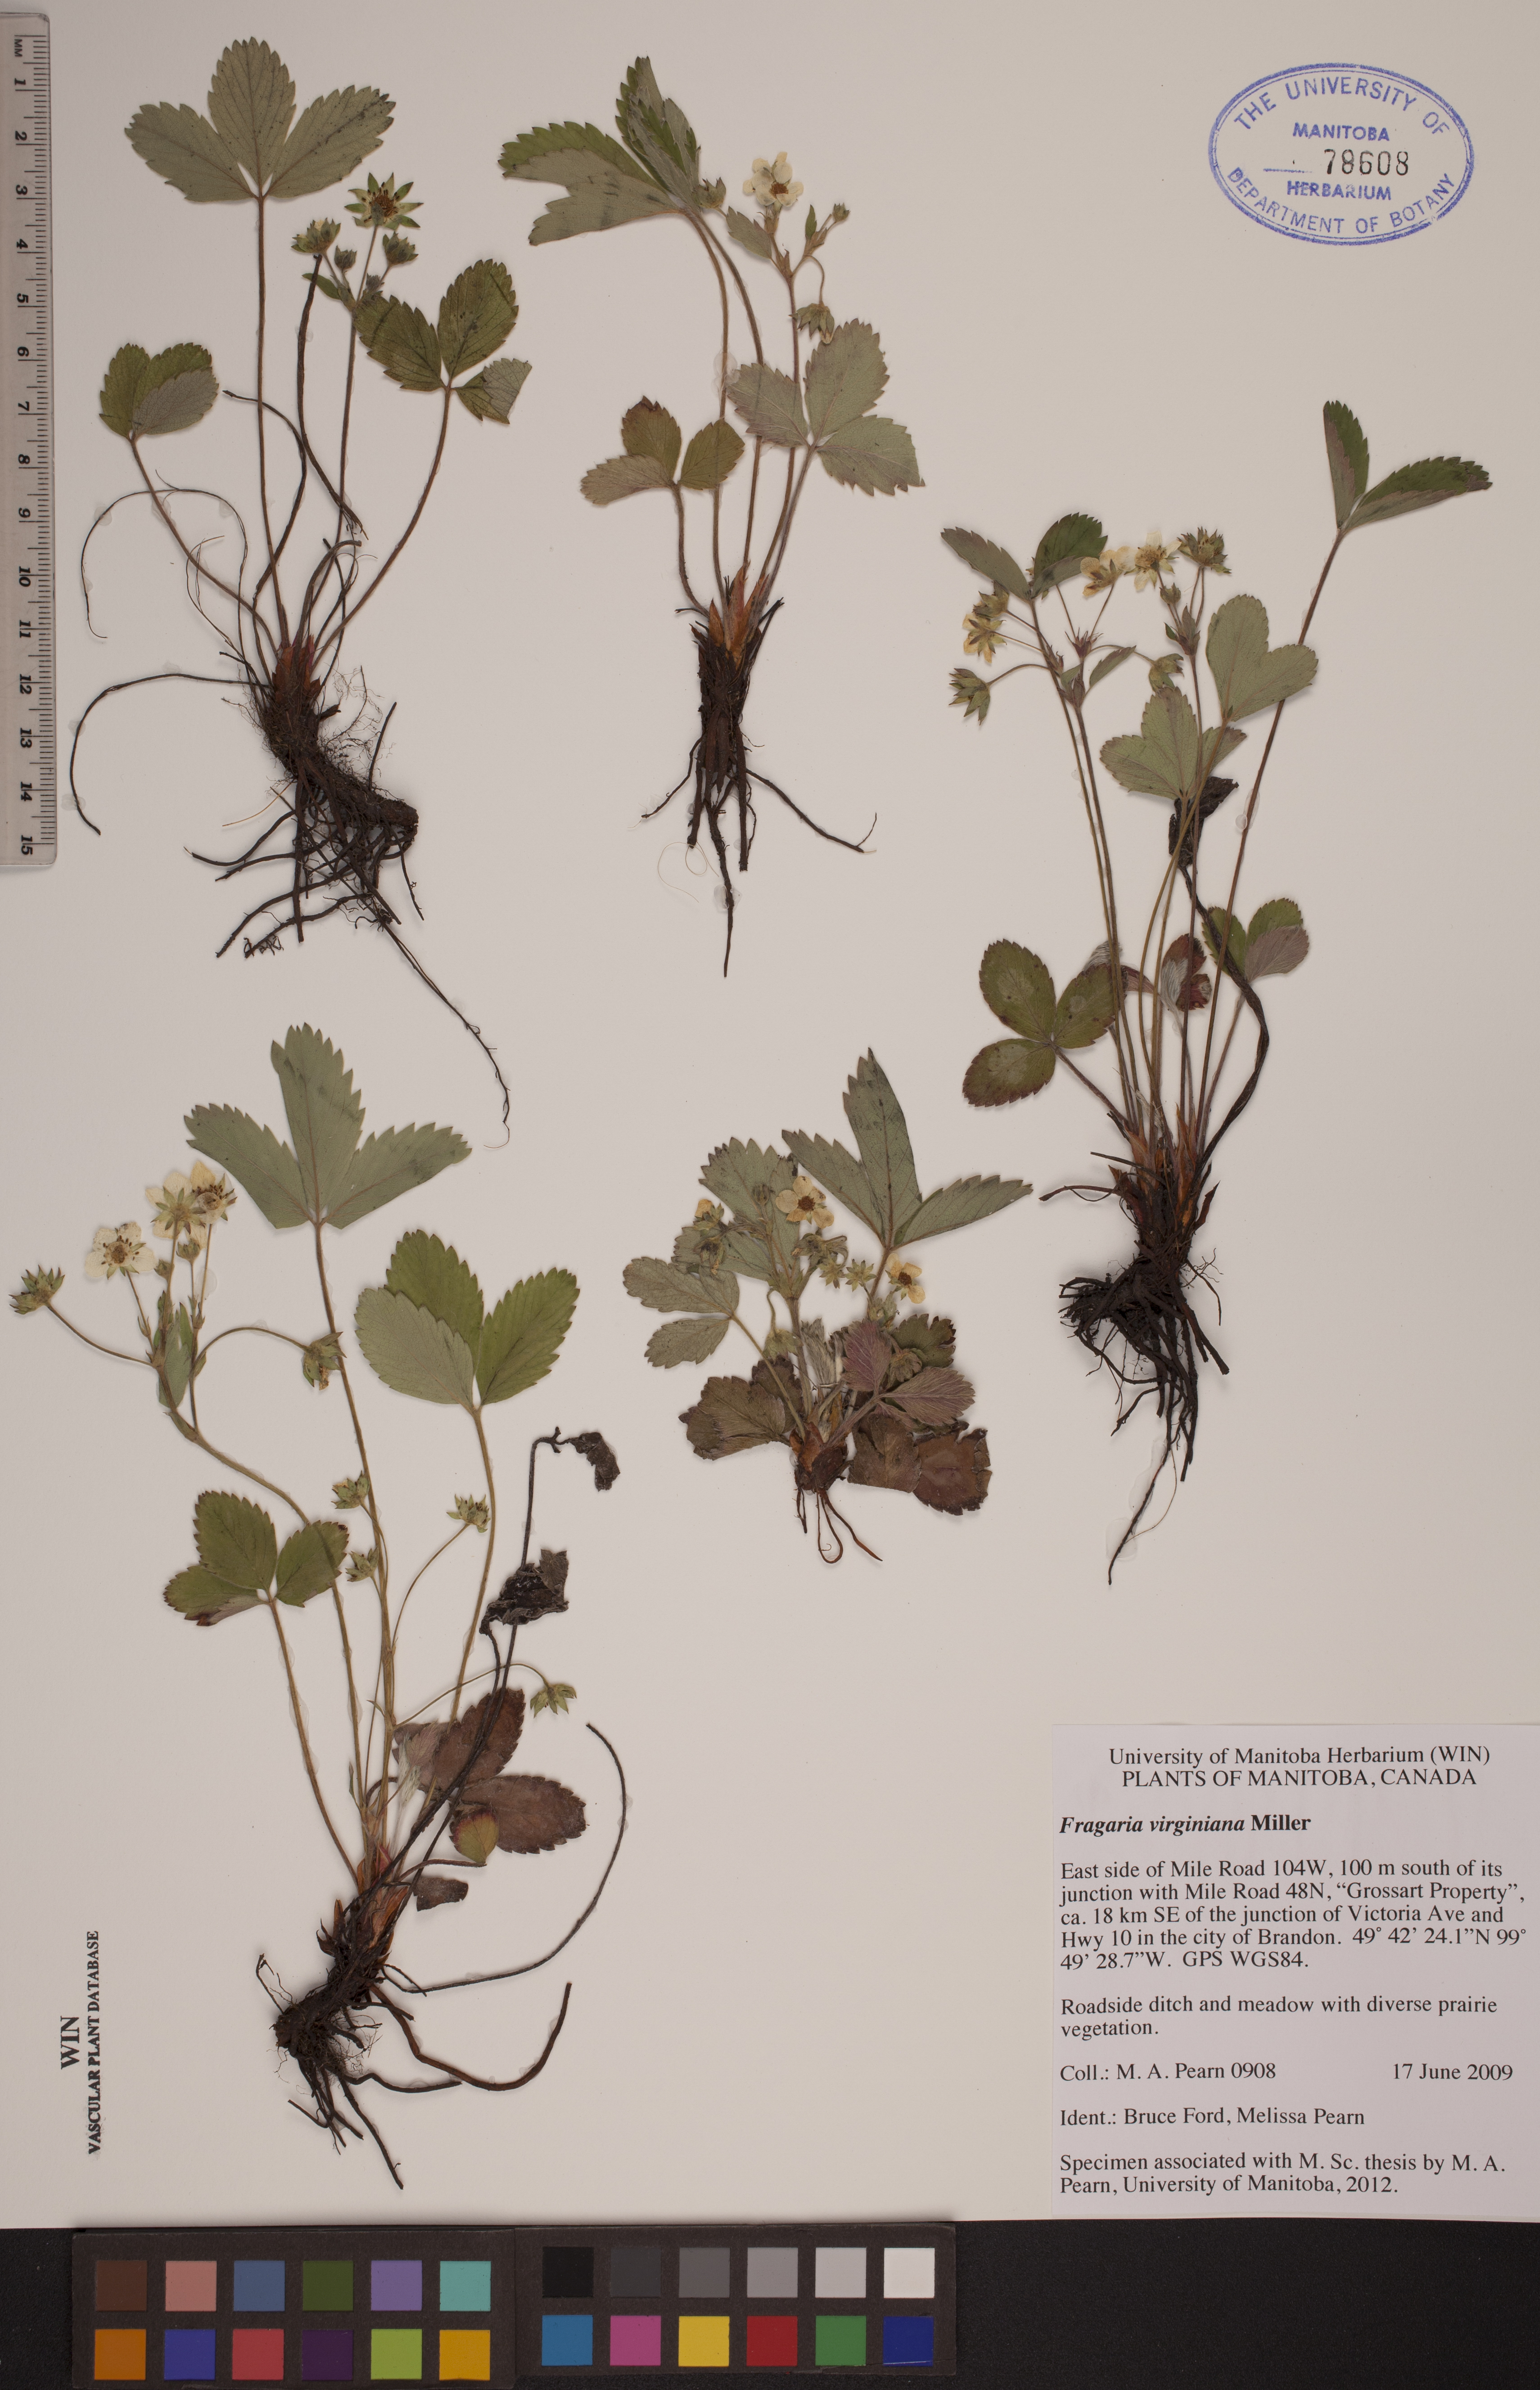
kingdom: Plantae
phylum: Tracheophyta
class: Magnoliopsida
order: Rosales
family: Rosaceae
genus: Fragaria
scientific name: Fragaria virginiana
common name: Thickleaved wild strawberry
